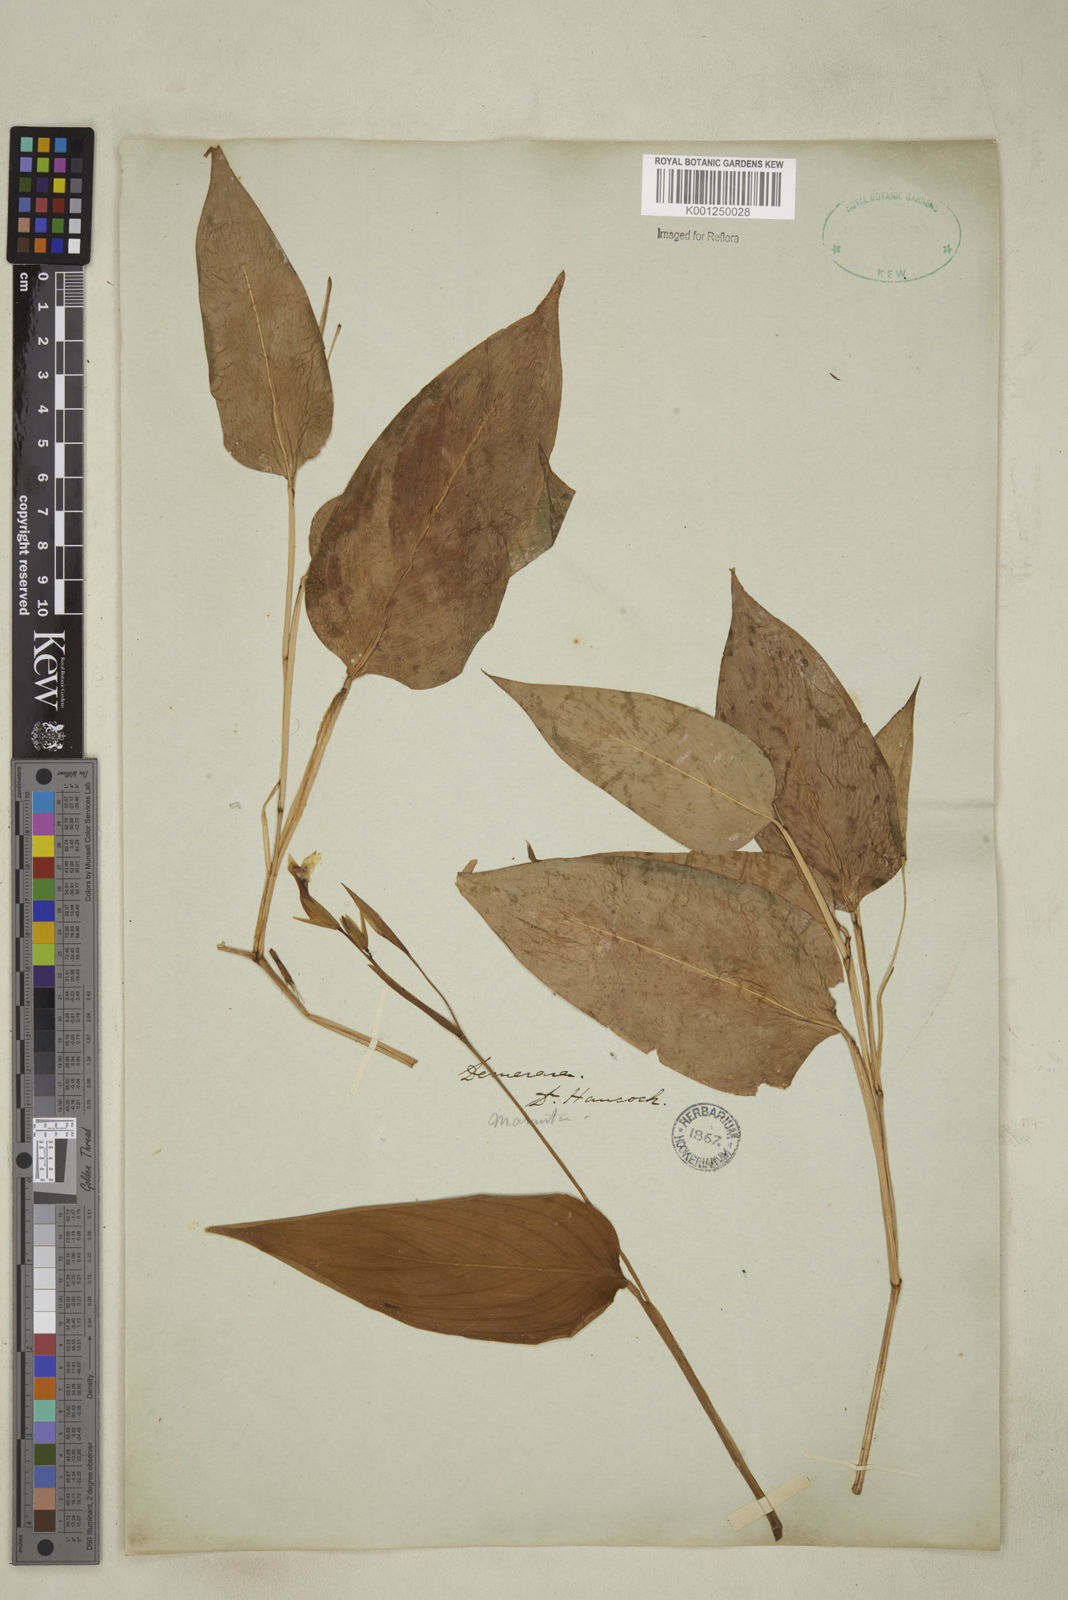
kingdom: Plantae
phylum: Tracheophyta
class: Liliopsida
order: Zingiberales
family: Marantaceae
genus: Maranta
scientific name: Maranta
